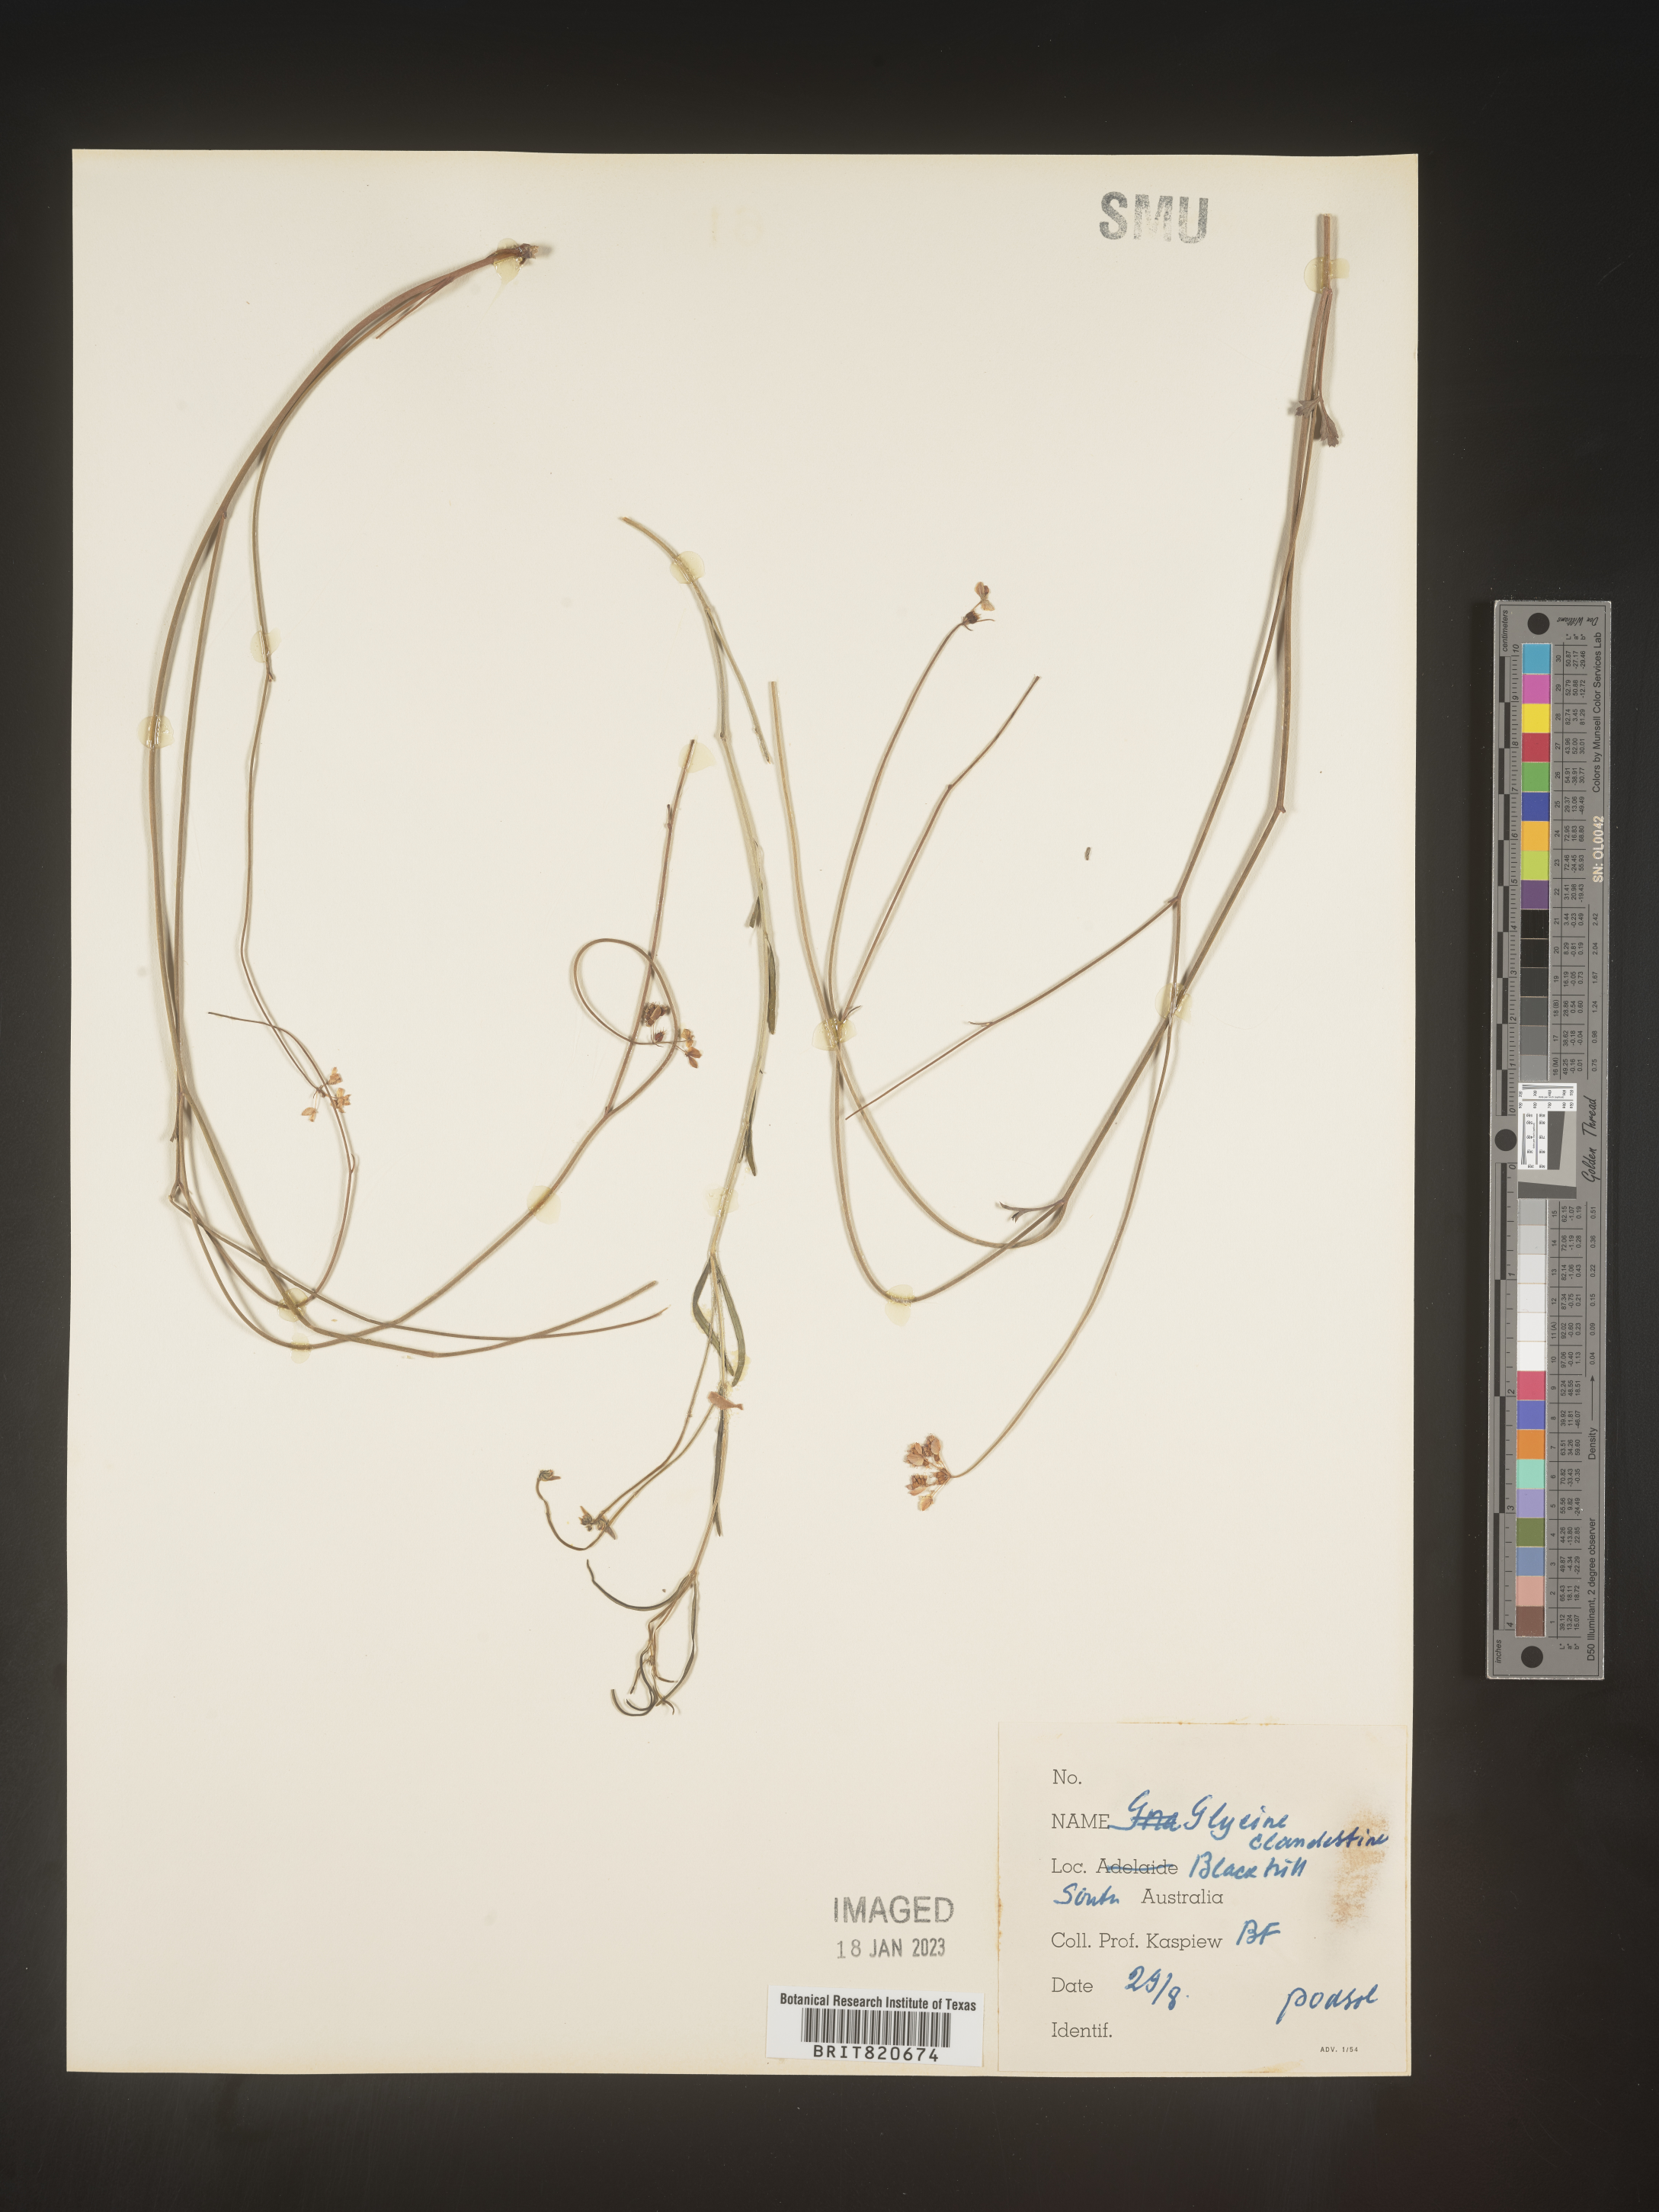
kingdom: Plantae
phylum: Tracheophyta
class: Magnoliopsida
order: Fabales
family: Fabaceae
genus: Glycine
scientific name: Glycine
